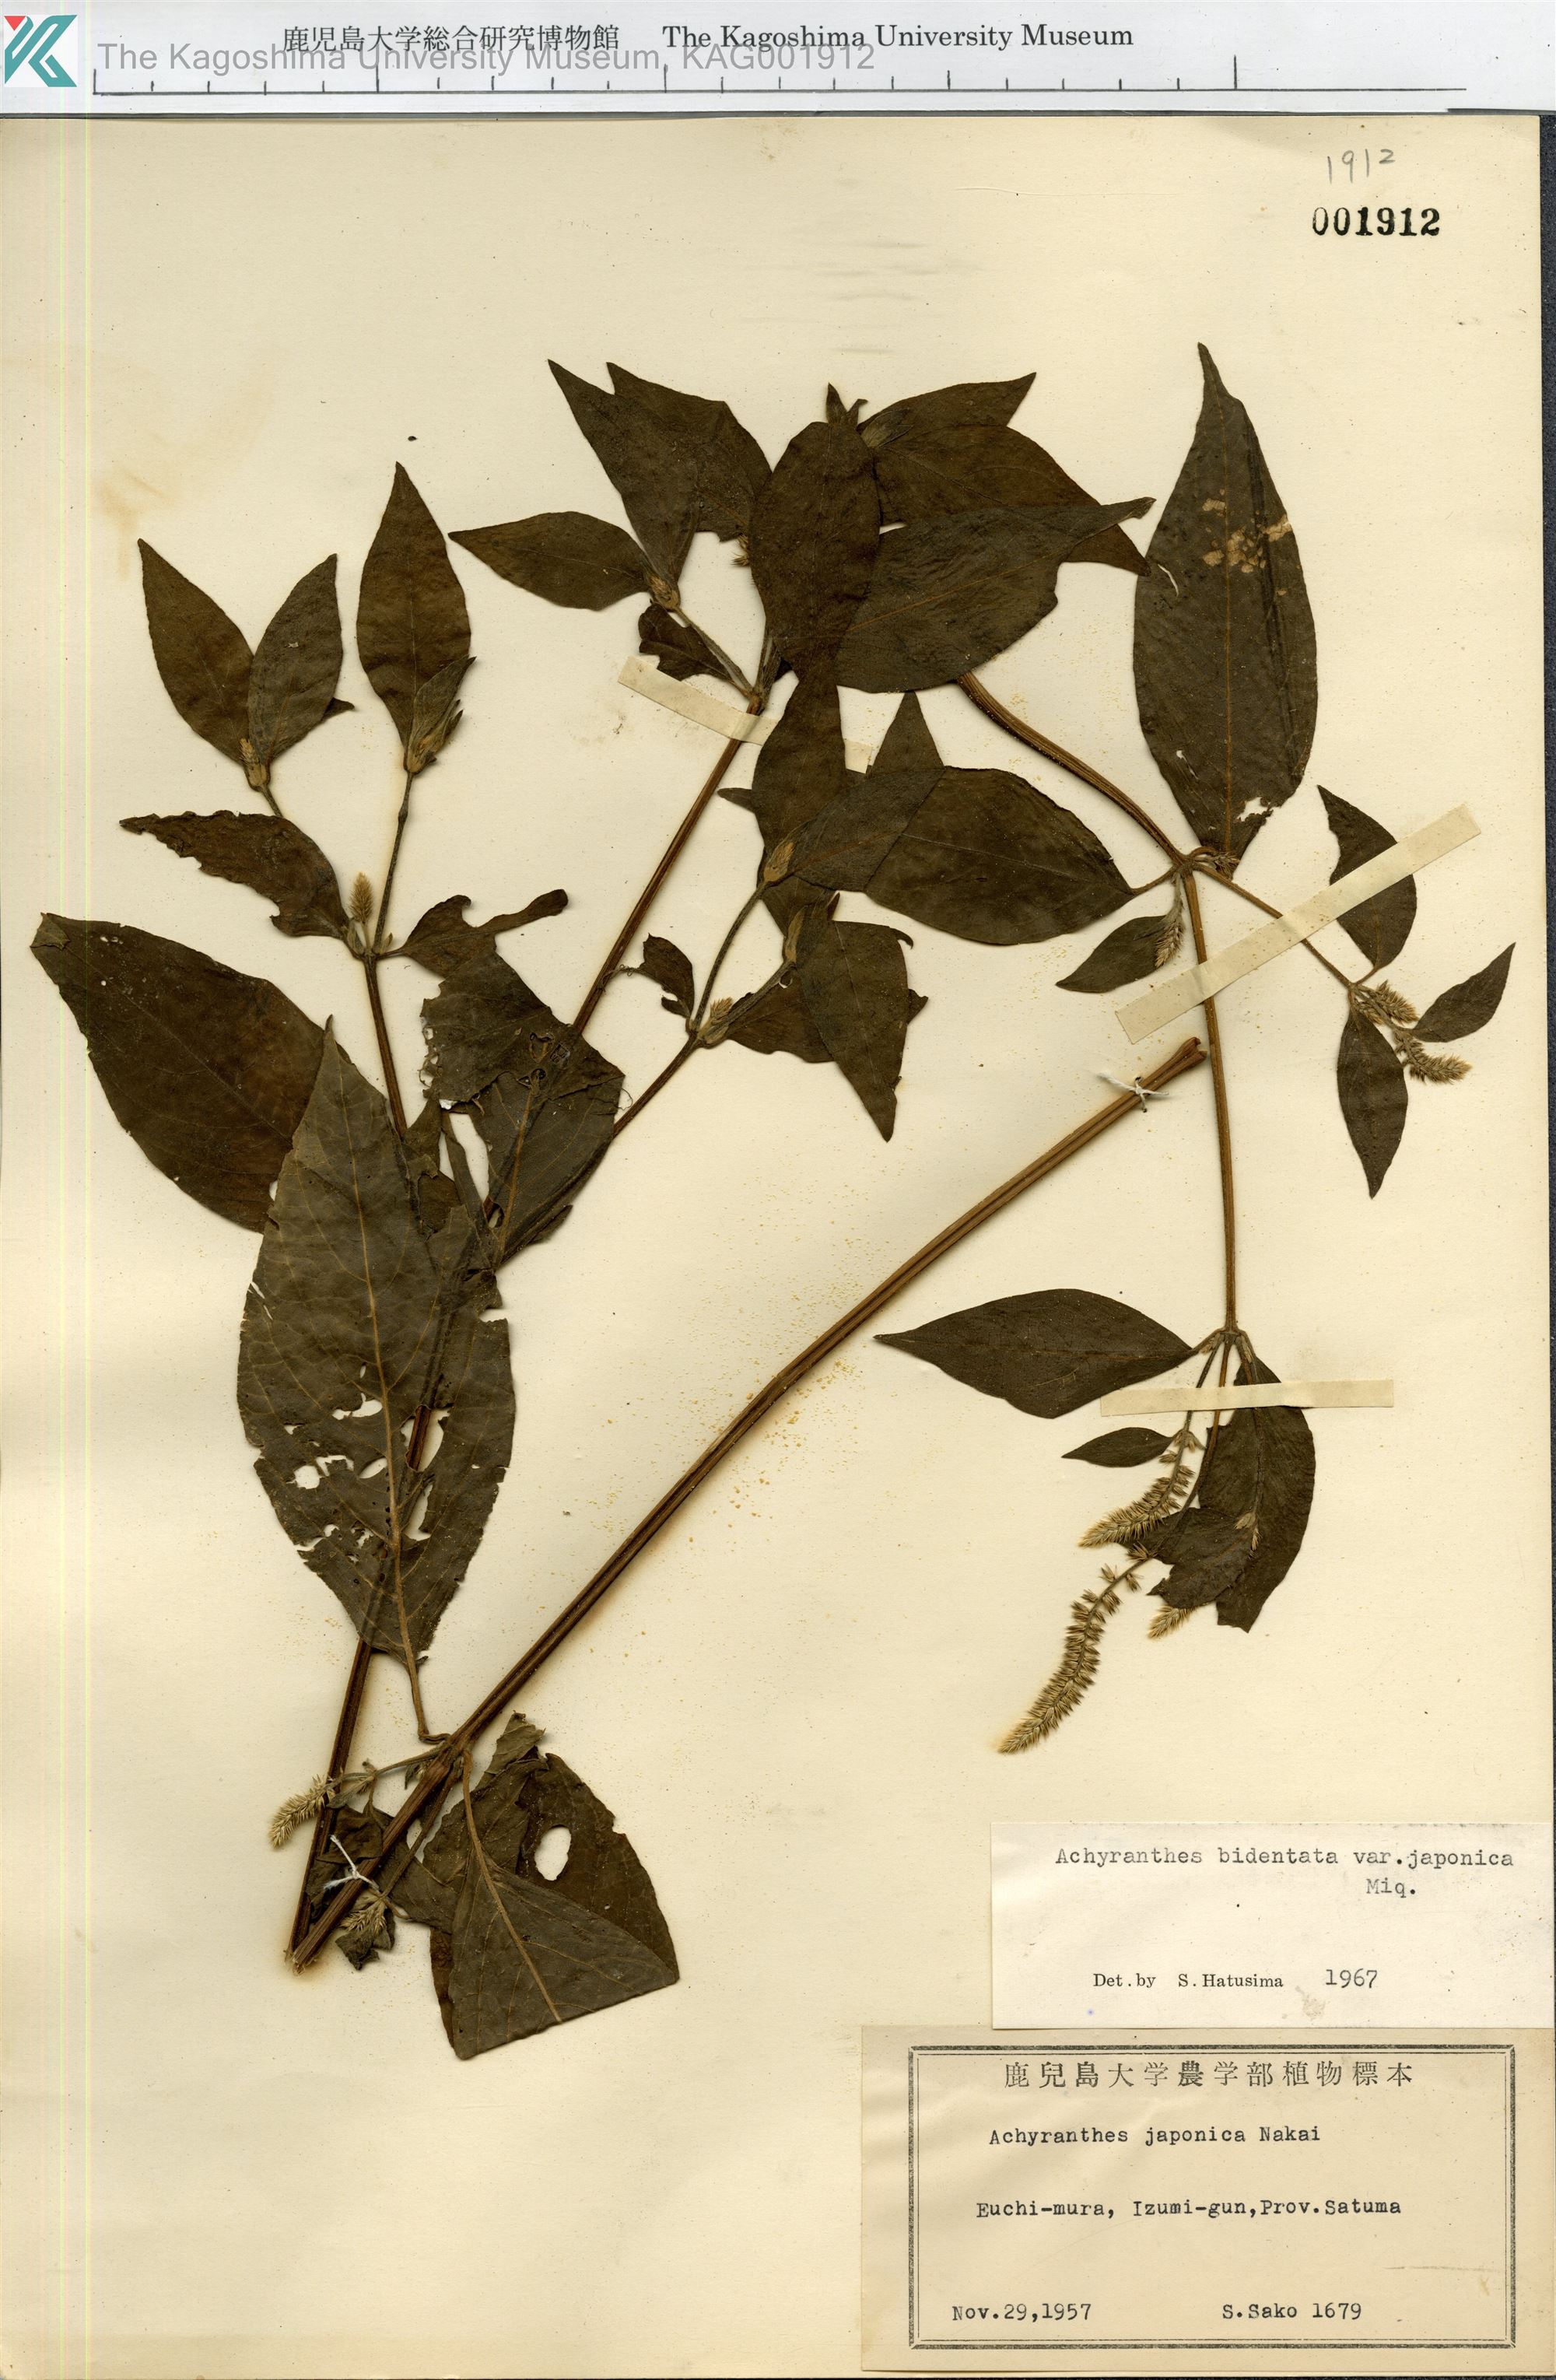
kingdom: Plantae
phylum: Tracheophyta
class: Magnoliopsida
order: Caryophyllales
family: Amaranthaceae
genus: Achyranthes
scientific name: Achyranthes bidentata
